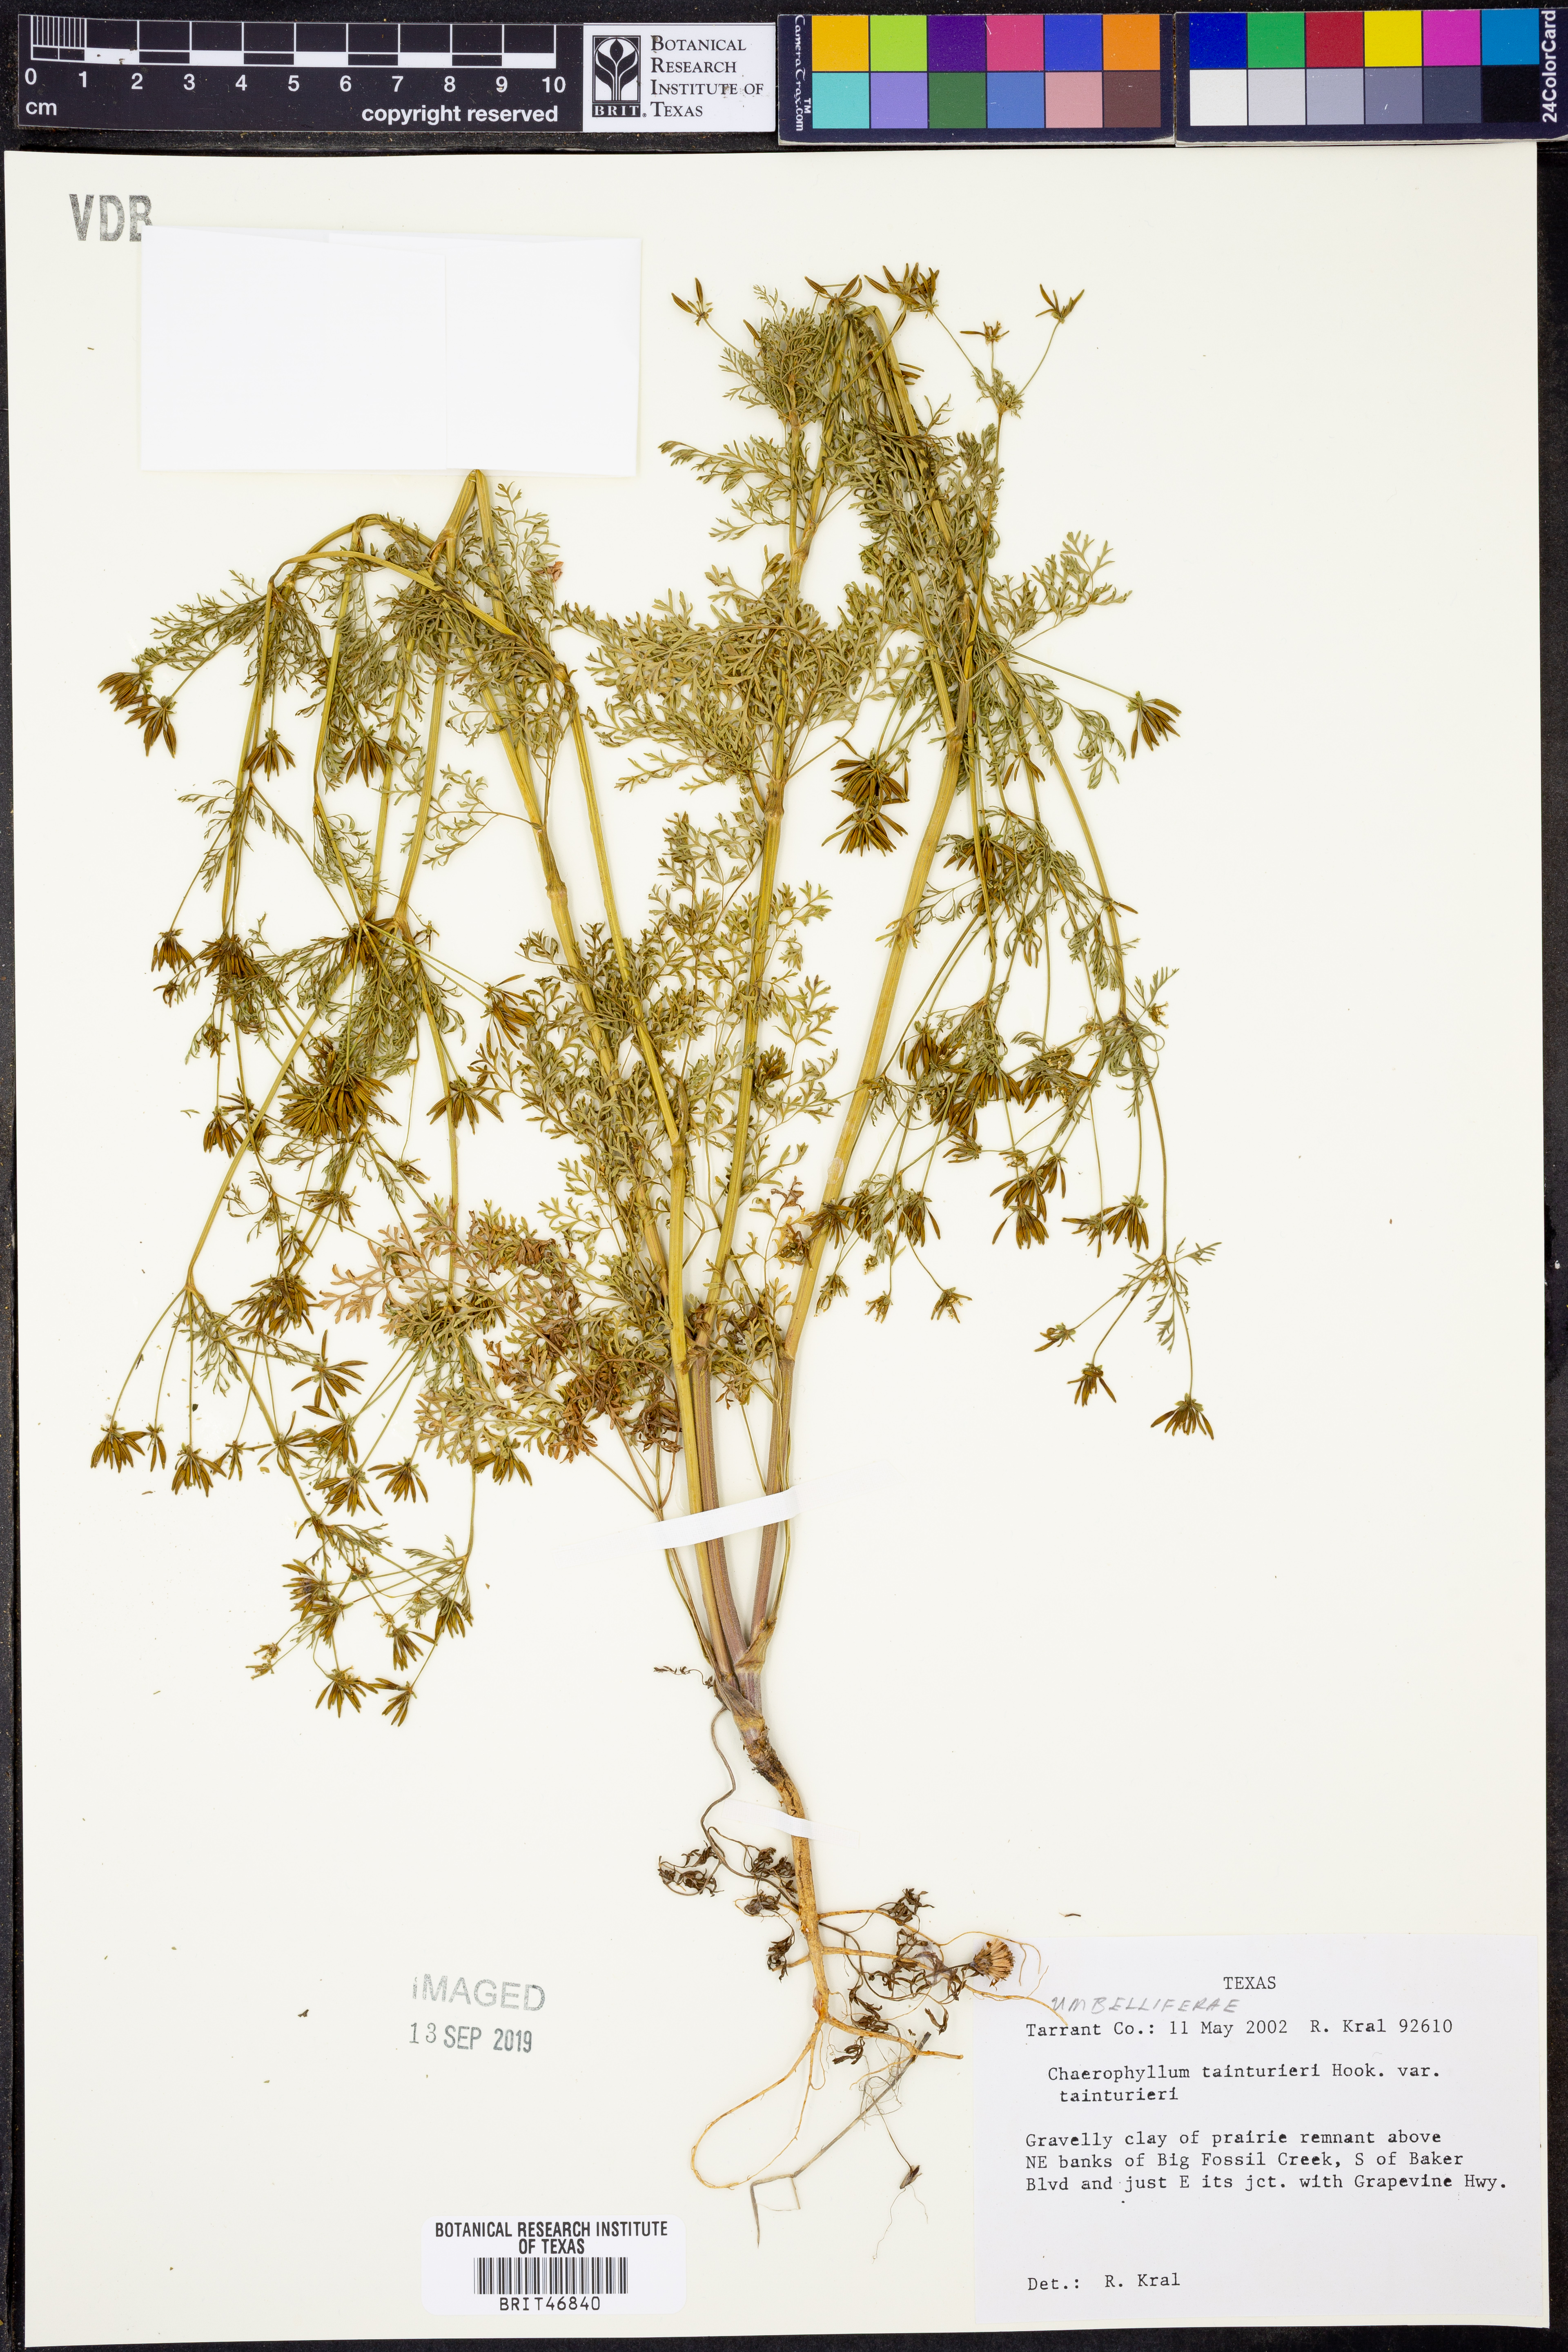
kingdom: Plantae
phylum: Tracheophyta
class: Magnoliopsida
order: Apiales
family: Apiaceae
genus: Chaerophyllum
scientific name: Chaerophyllum tainturieri
